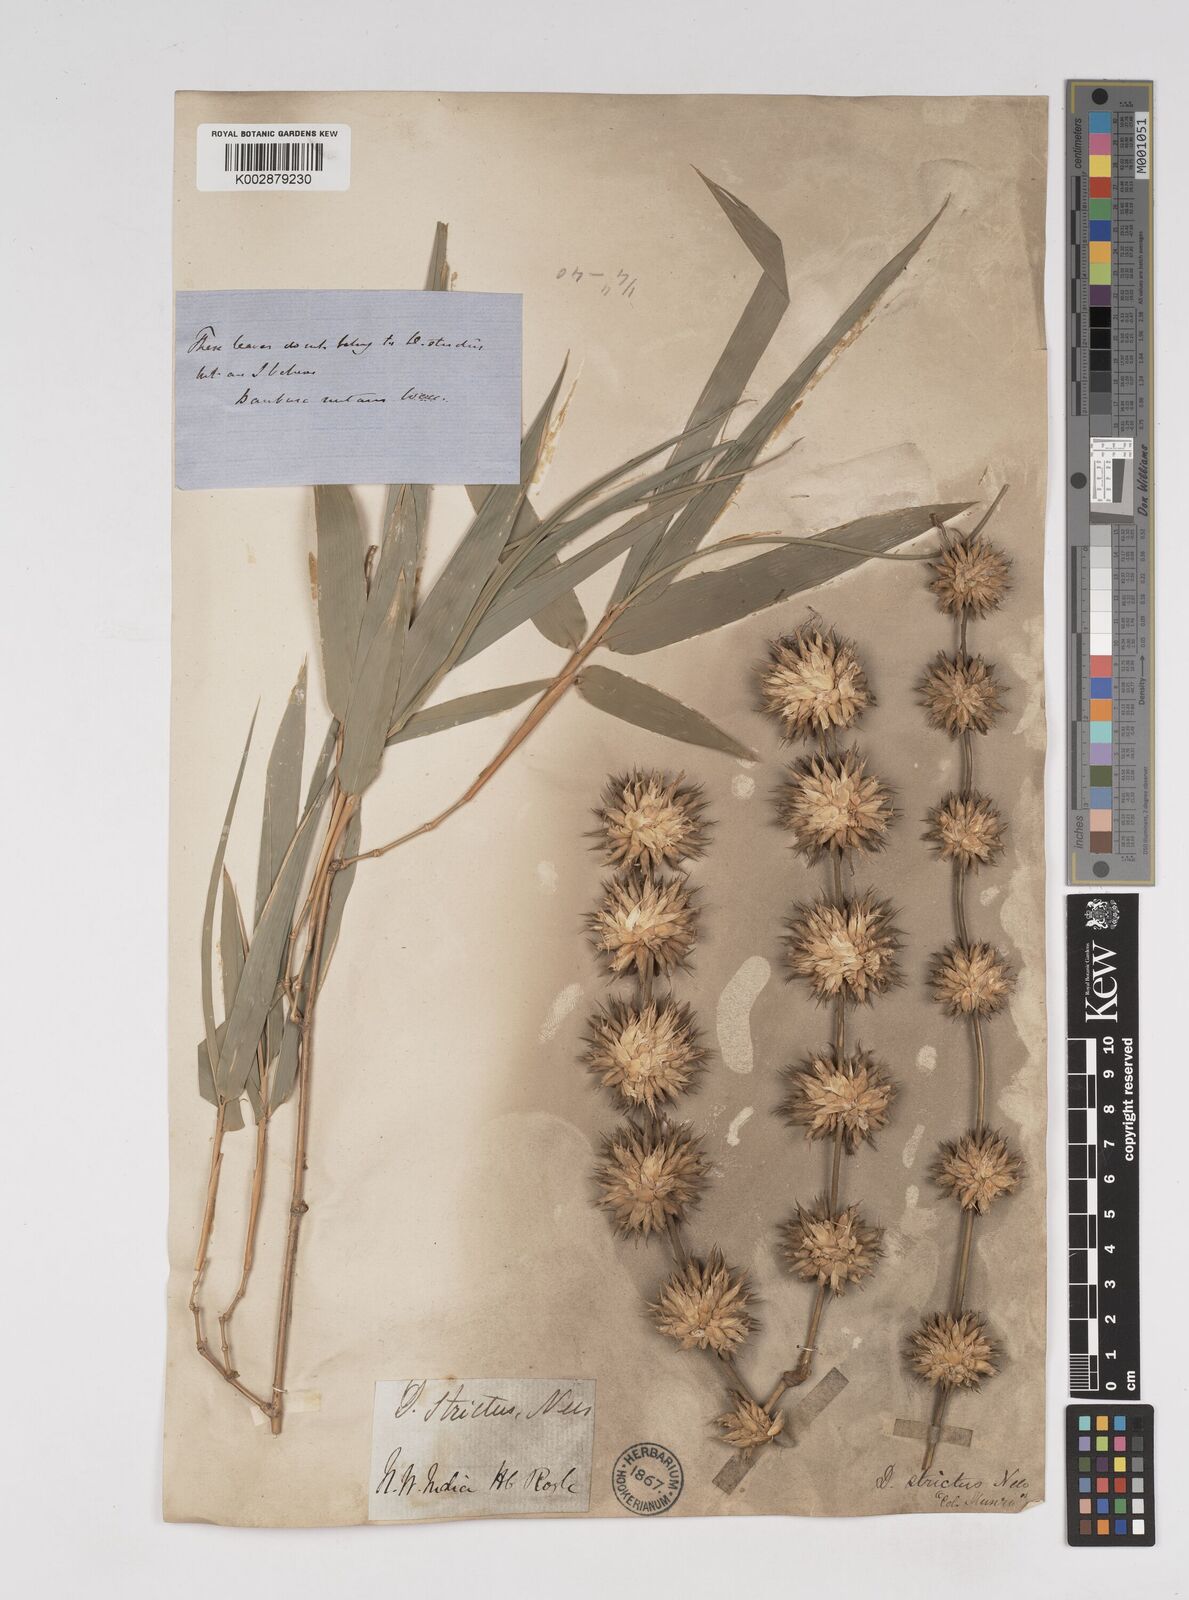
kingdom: Plantae
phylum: Tracheophyta
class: Liliopsida
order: Poales
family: Poaceae
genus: Dendrocalamus
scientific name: Dendrocalamus strictus
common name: Male bamboo
